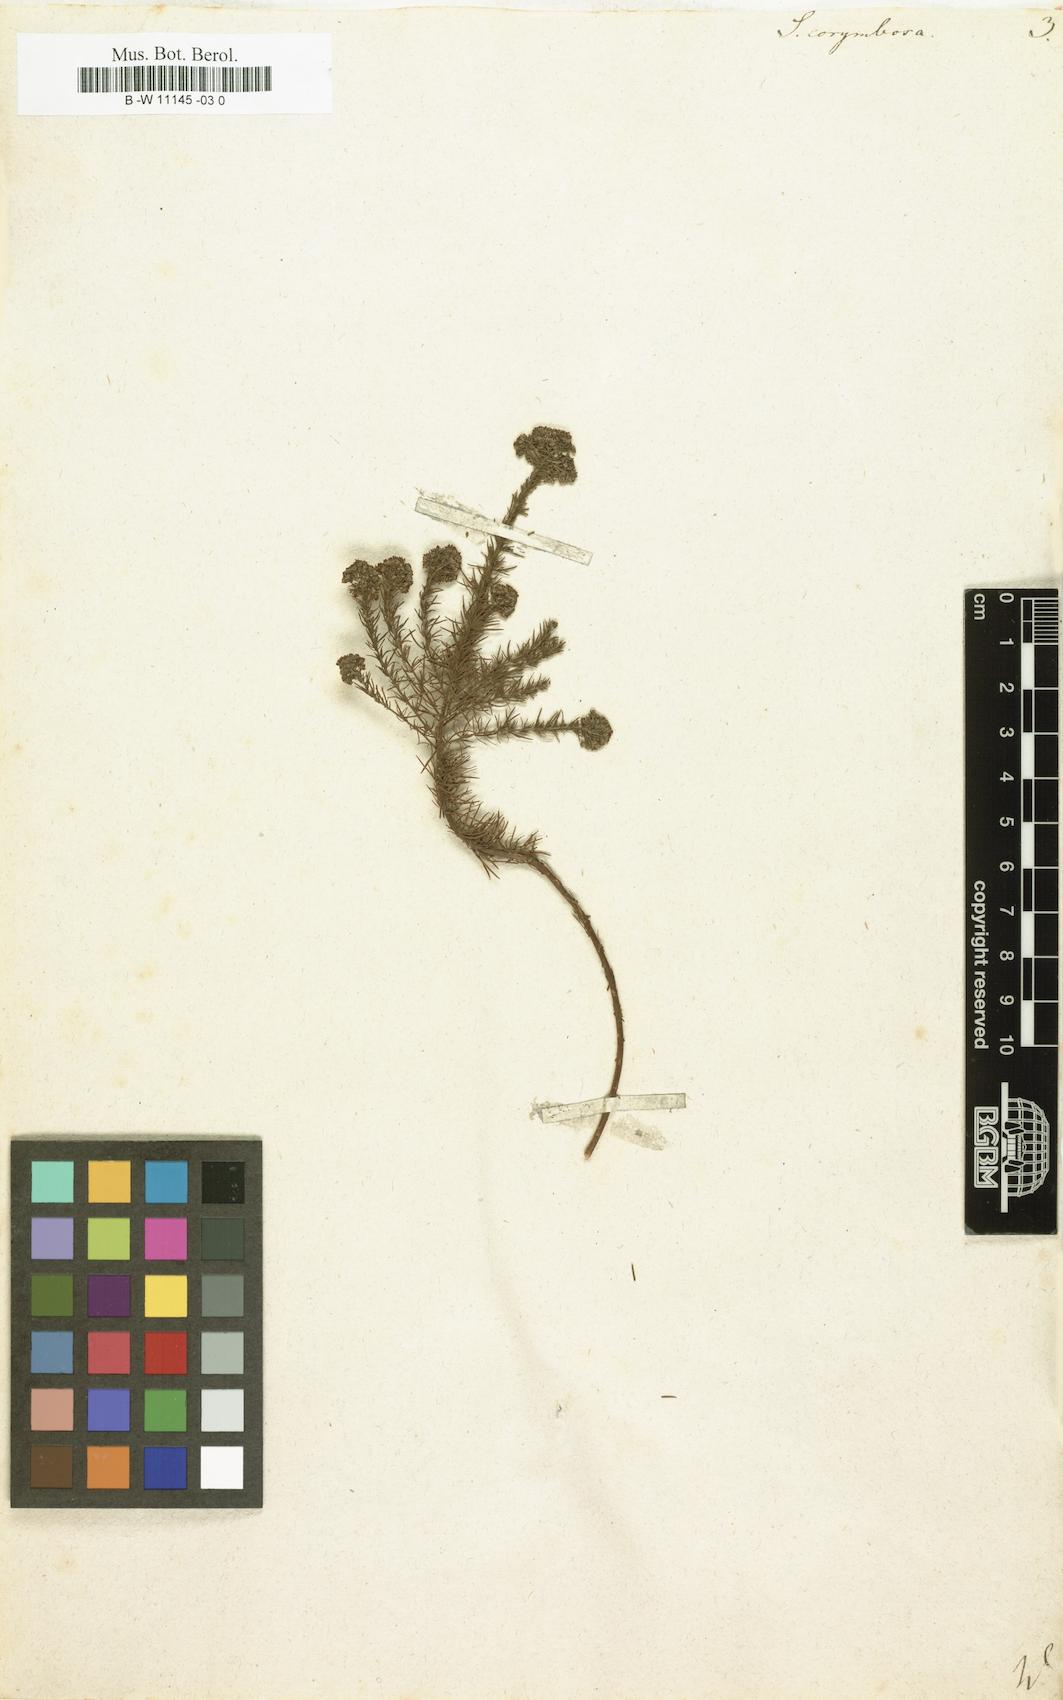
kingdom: Plantae
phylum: Tracheophyta
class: Magnoliopsida
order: Lamiales
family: Scrophulariaceae
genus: Selago
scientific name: Selago corymbosa
